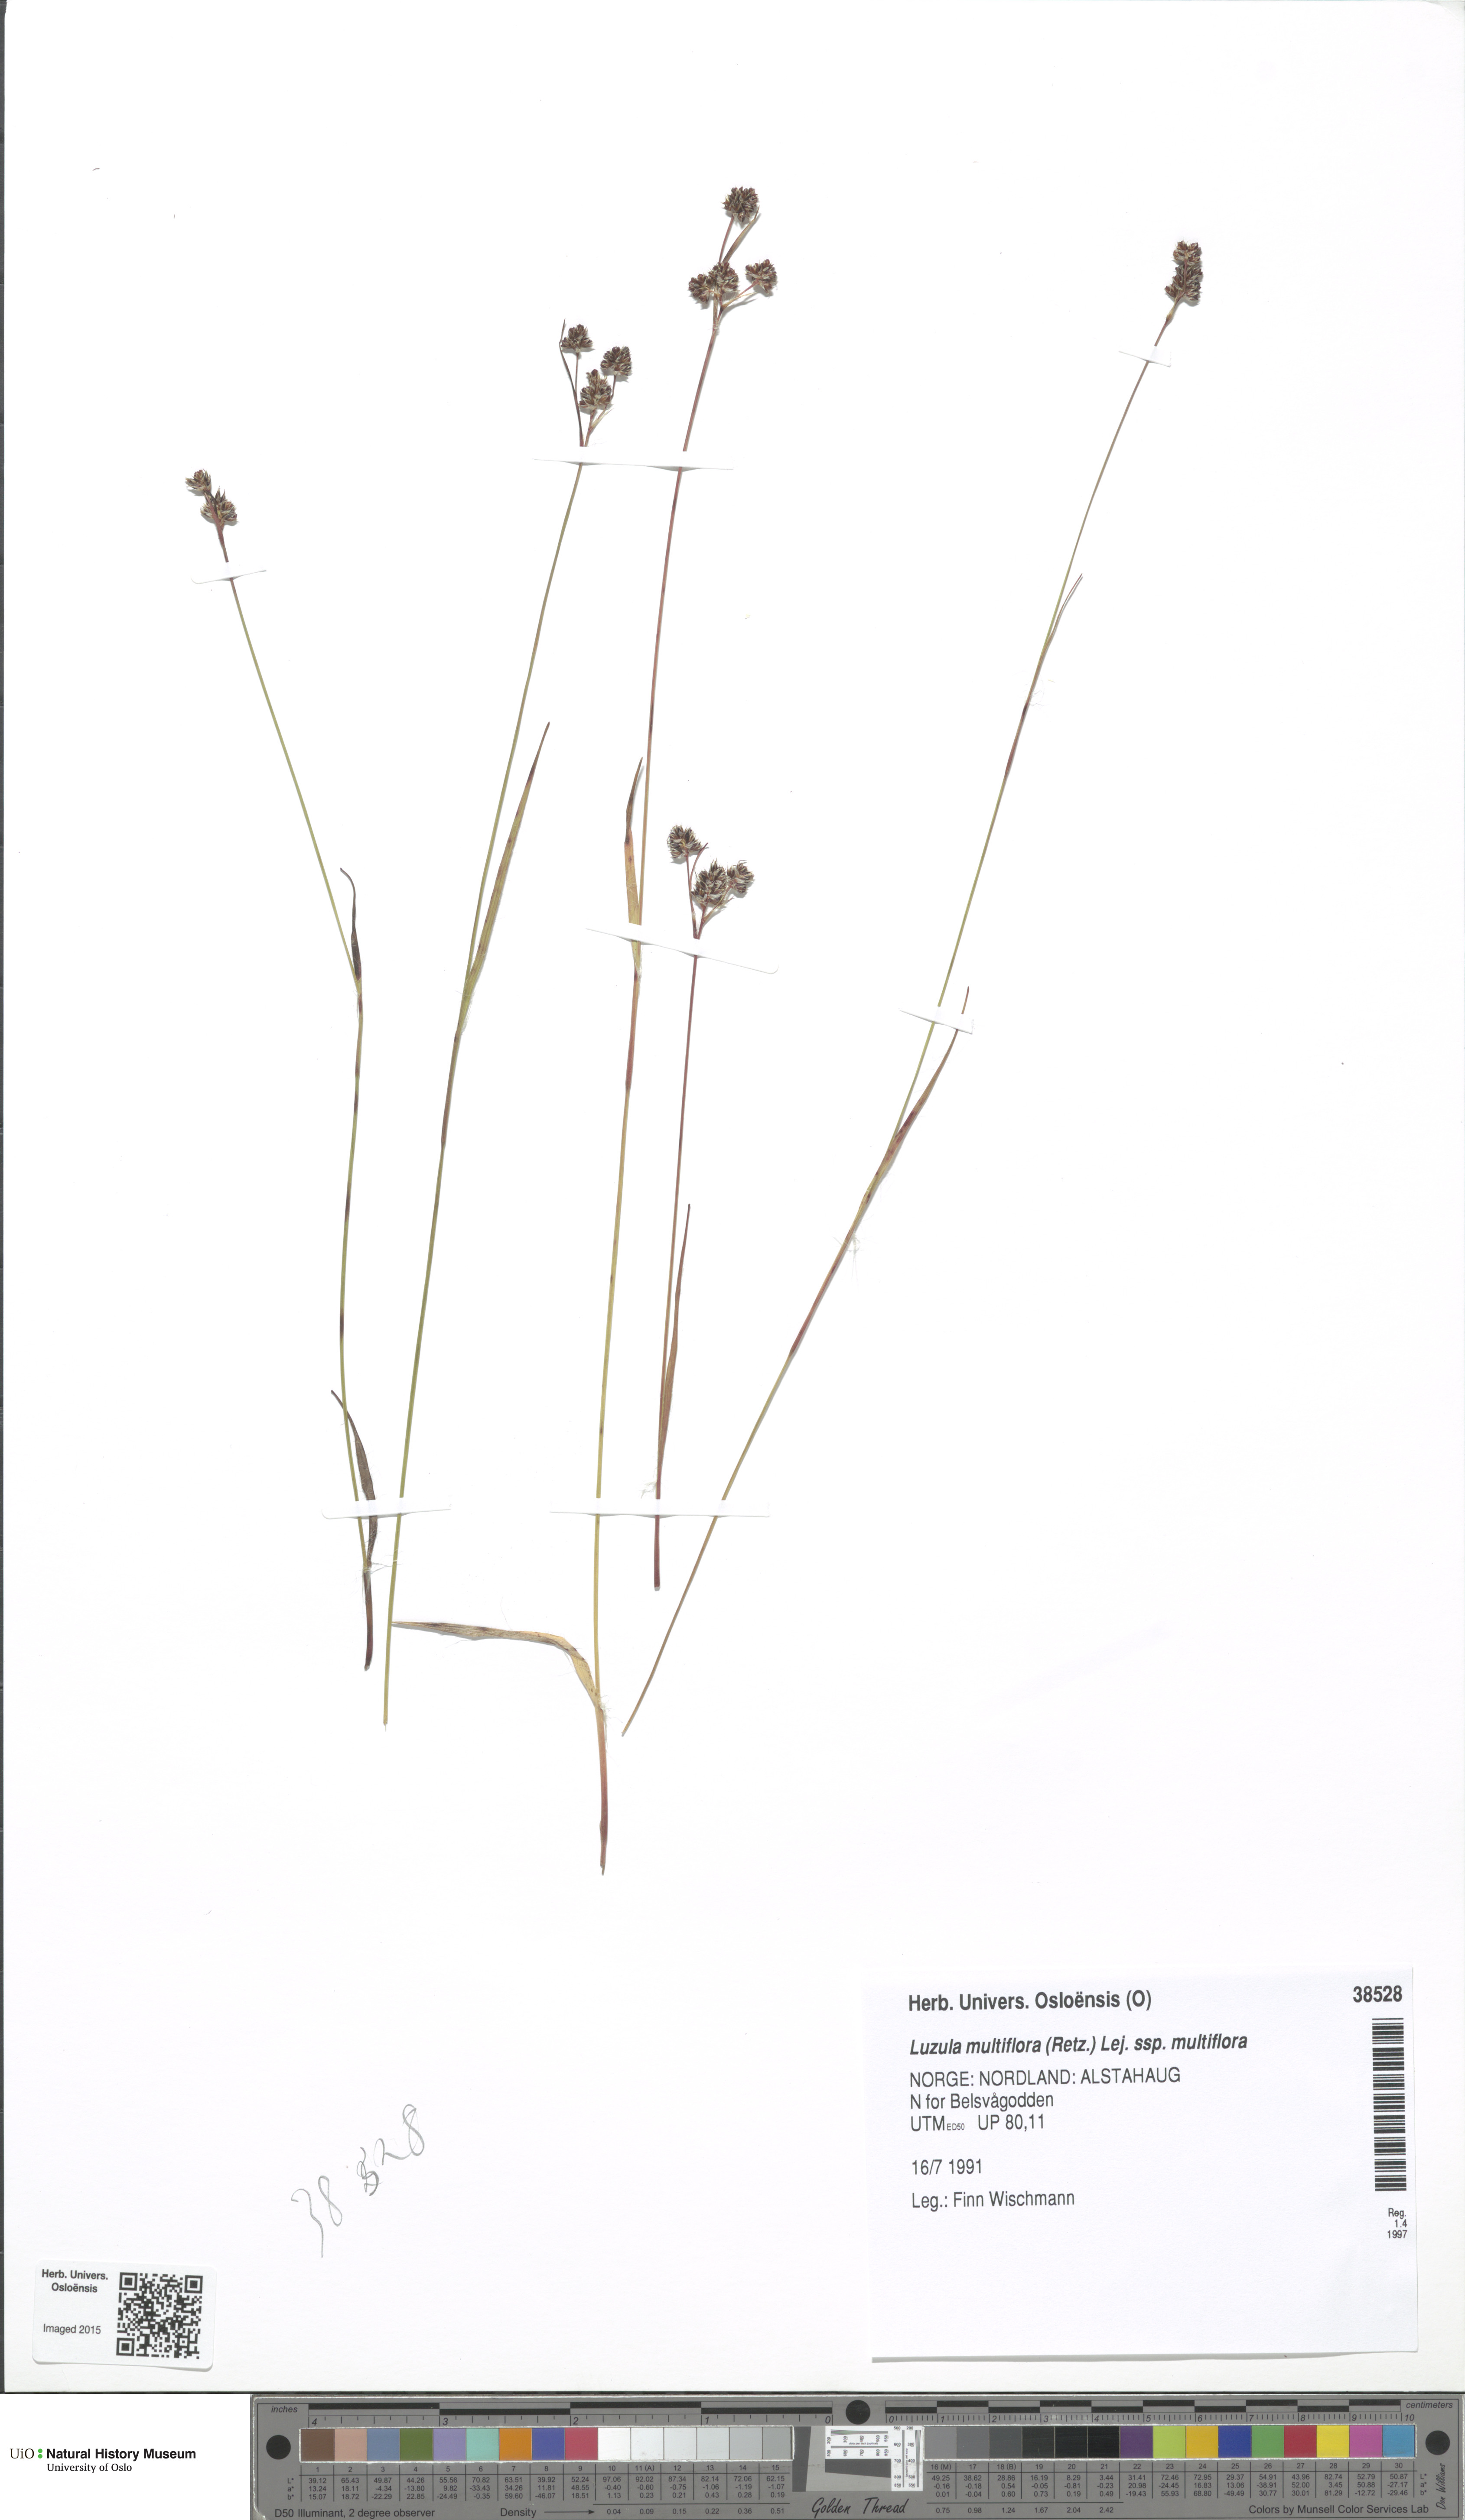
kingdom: Plantae
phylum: Tracheophyta
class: Liliopsida
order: Poales
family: Juncaceae
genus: Luzula
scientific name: Luzula multiflora
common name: Heath wood-rush
